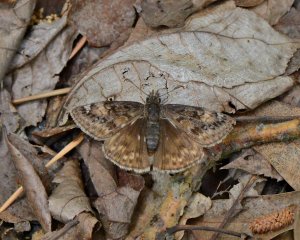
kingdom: Animalia
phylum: Arthropoda
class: Insecta
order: Lepidoptera
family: Hesperiidae
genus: Gesta
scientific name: Gesta
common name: Horace's Duskywing
